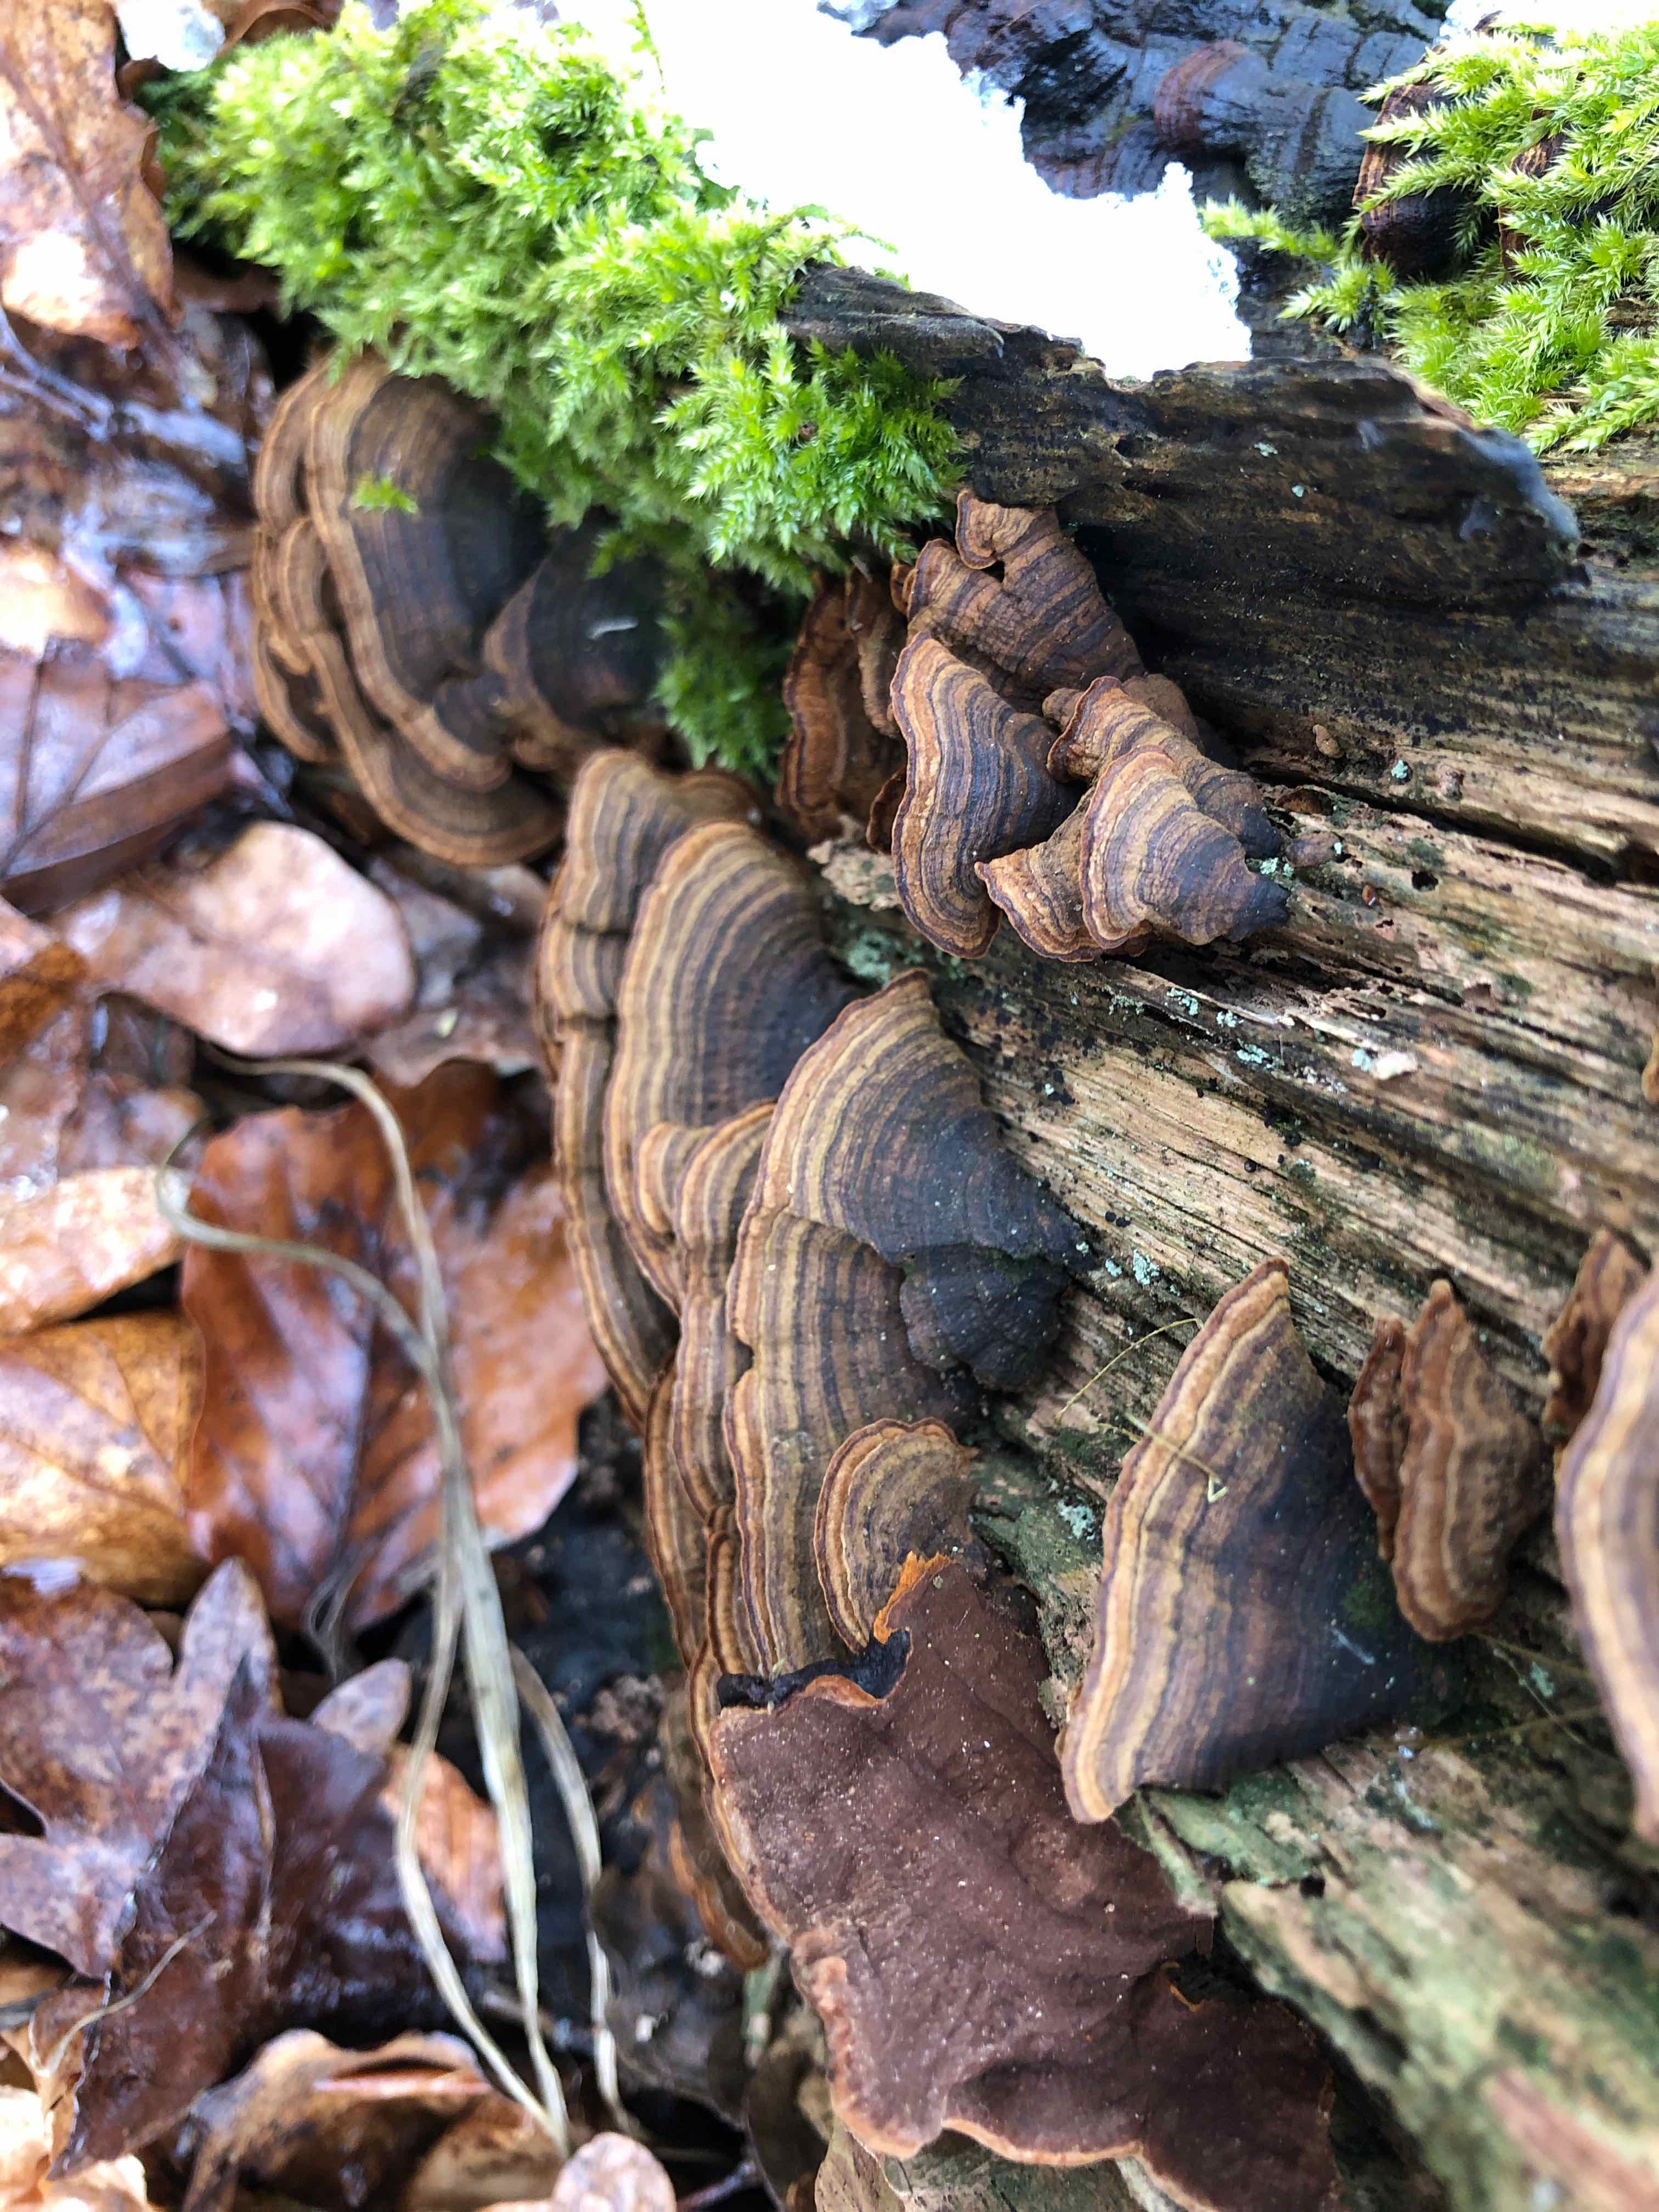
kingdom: Fungi
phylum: Basidiomycota
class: Agaricomycetes
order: Hymenochaetales
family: Hymenochaetaceae
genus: Hymenochaete
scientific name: Hymenochaete rubiginosa
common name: stiv ruslædersvamp
